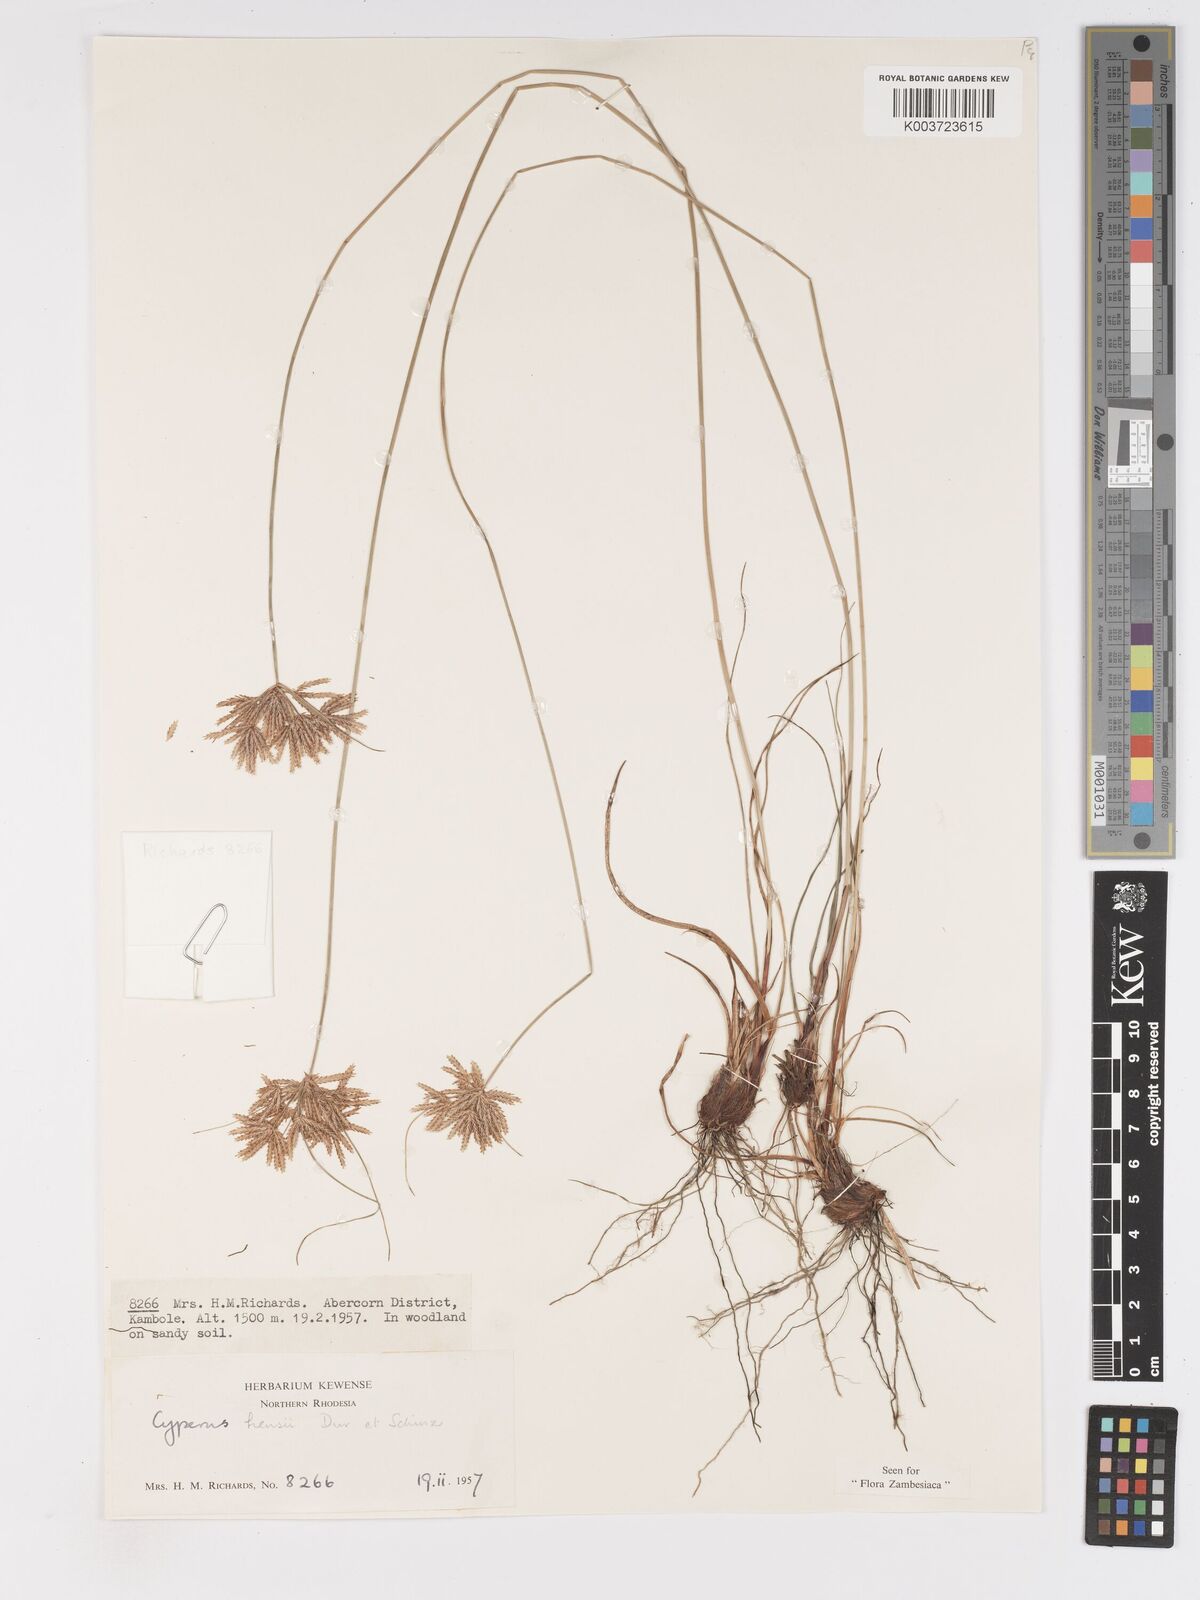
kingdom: Plantae
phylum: Tracheophyta
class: Liliopsida
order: Poales
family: Cyperaceae
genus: Cyperus
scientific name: Cyperus hensii
